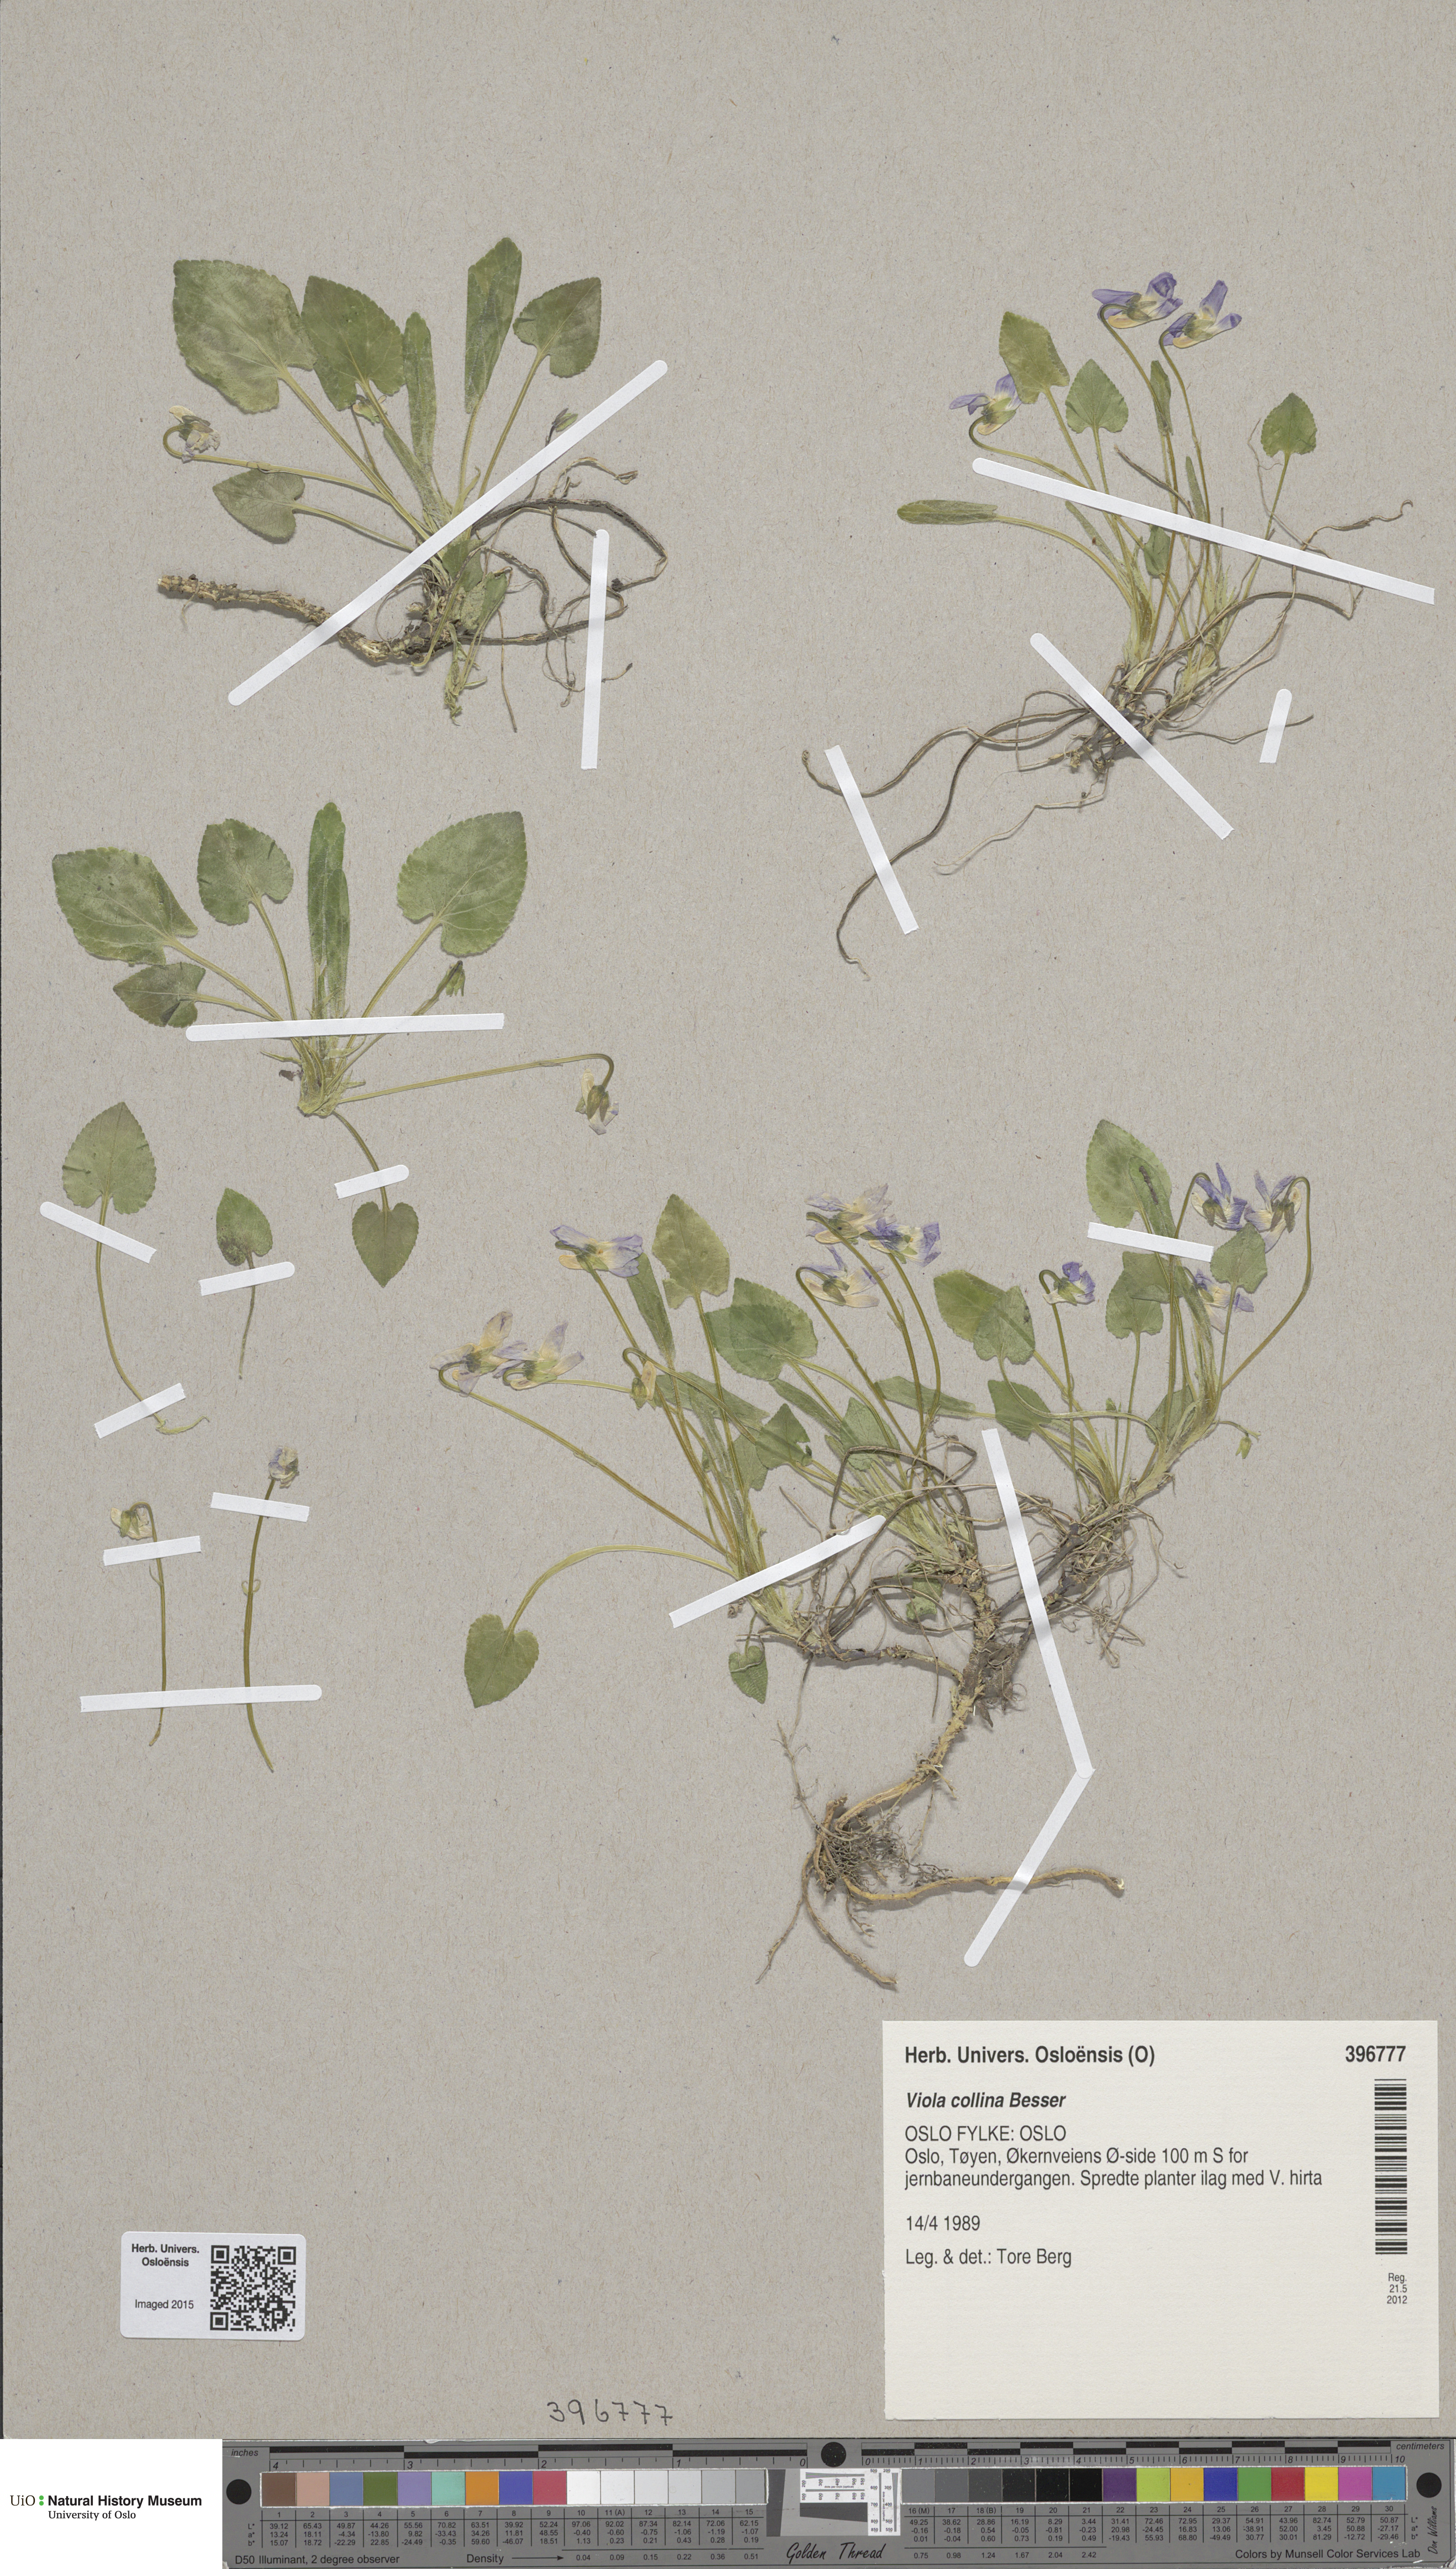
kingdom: Plantae
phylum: Tracheophyta
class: Magnoliopsida
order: Malpighiales
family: Violaceae
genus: Viola
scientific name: Viola collina
